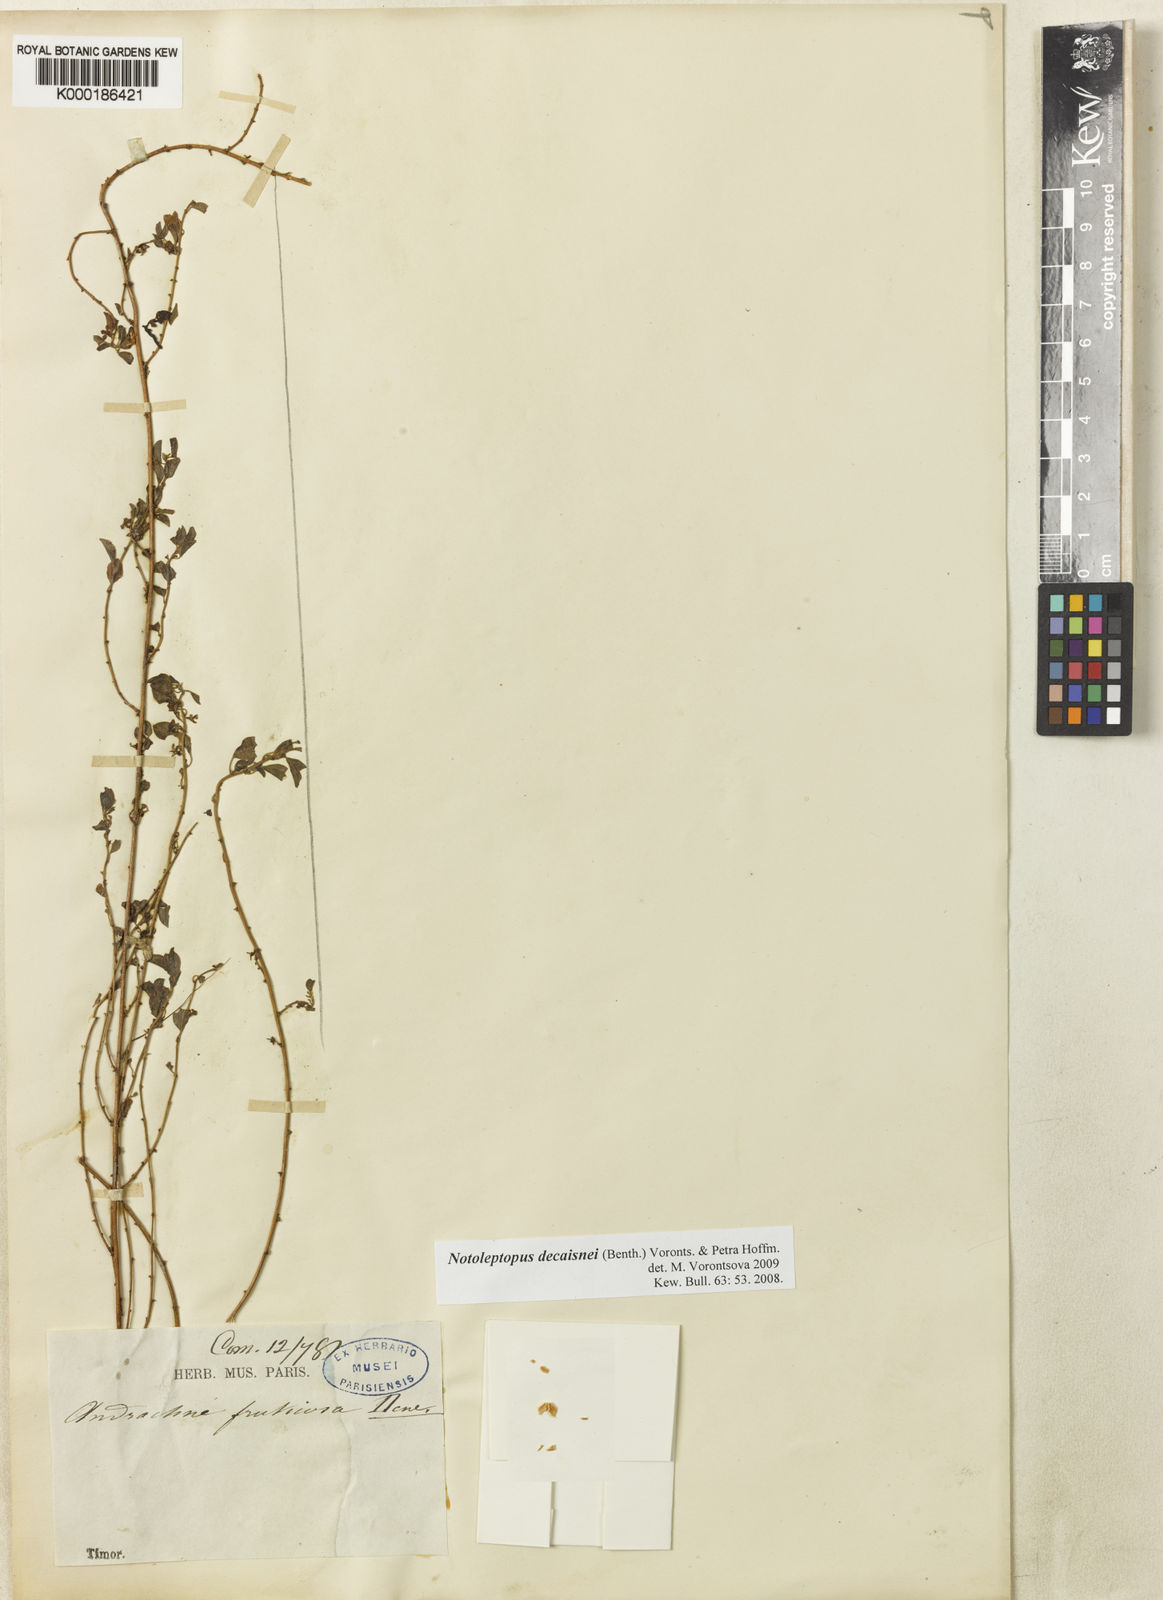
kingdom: Plantae
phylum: Tracheophyta
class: Magnoliopsida
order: Malpighiales
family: Phyllanthaceae
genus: Notoleptopus
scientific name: Notoleptopus decaisnei
